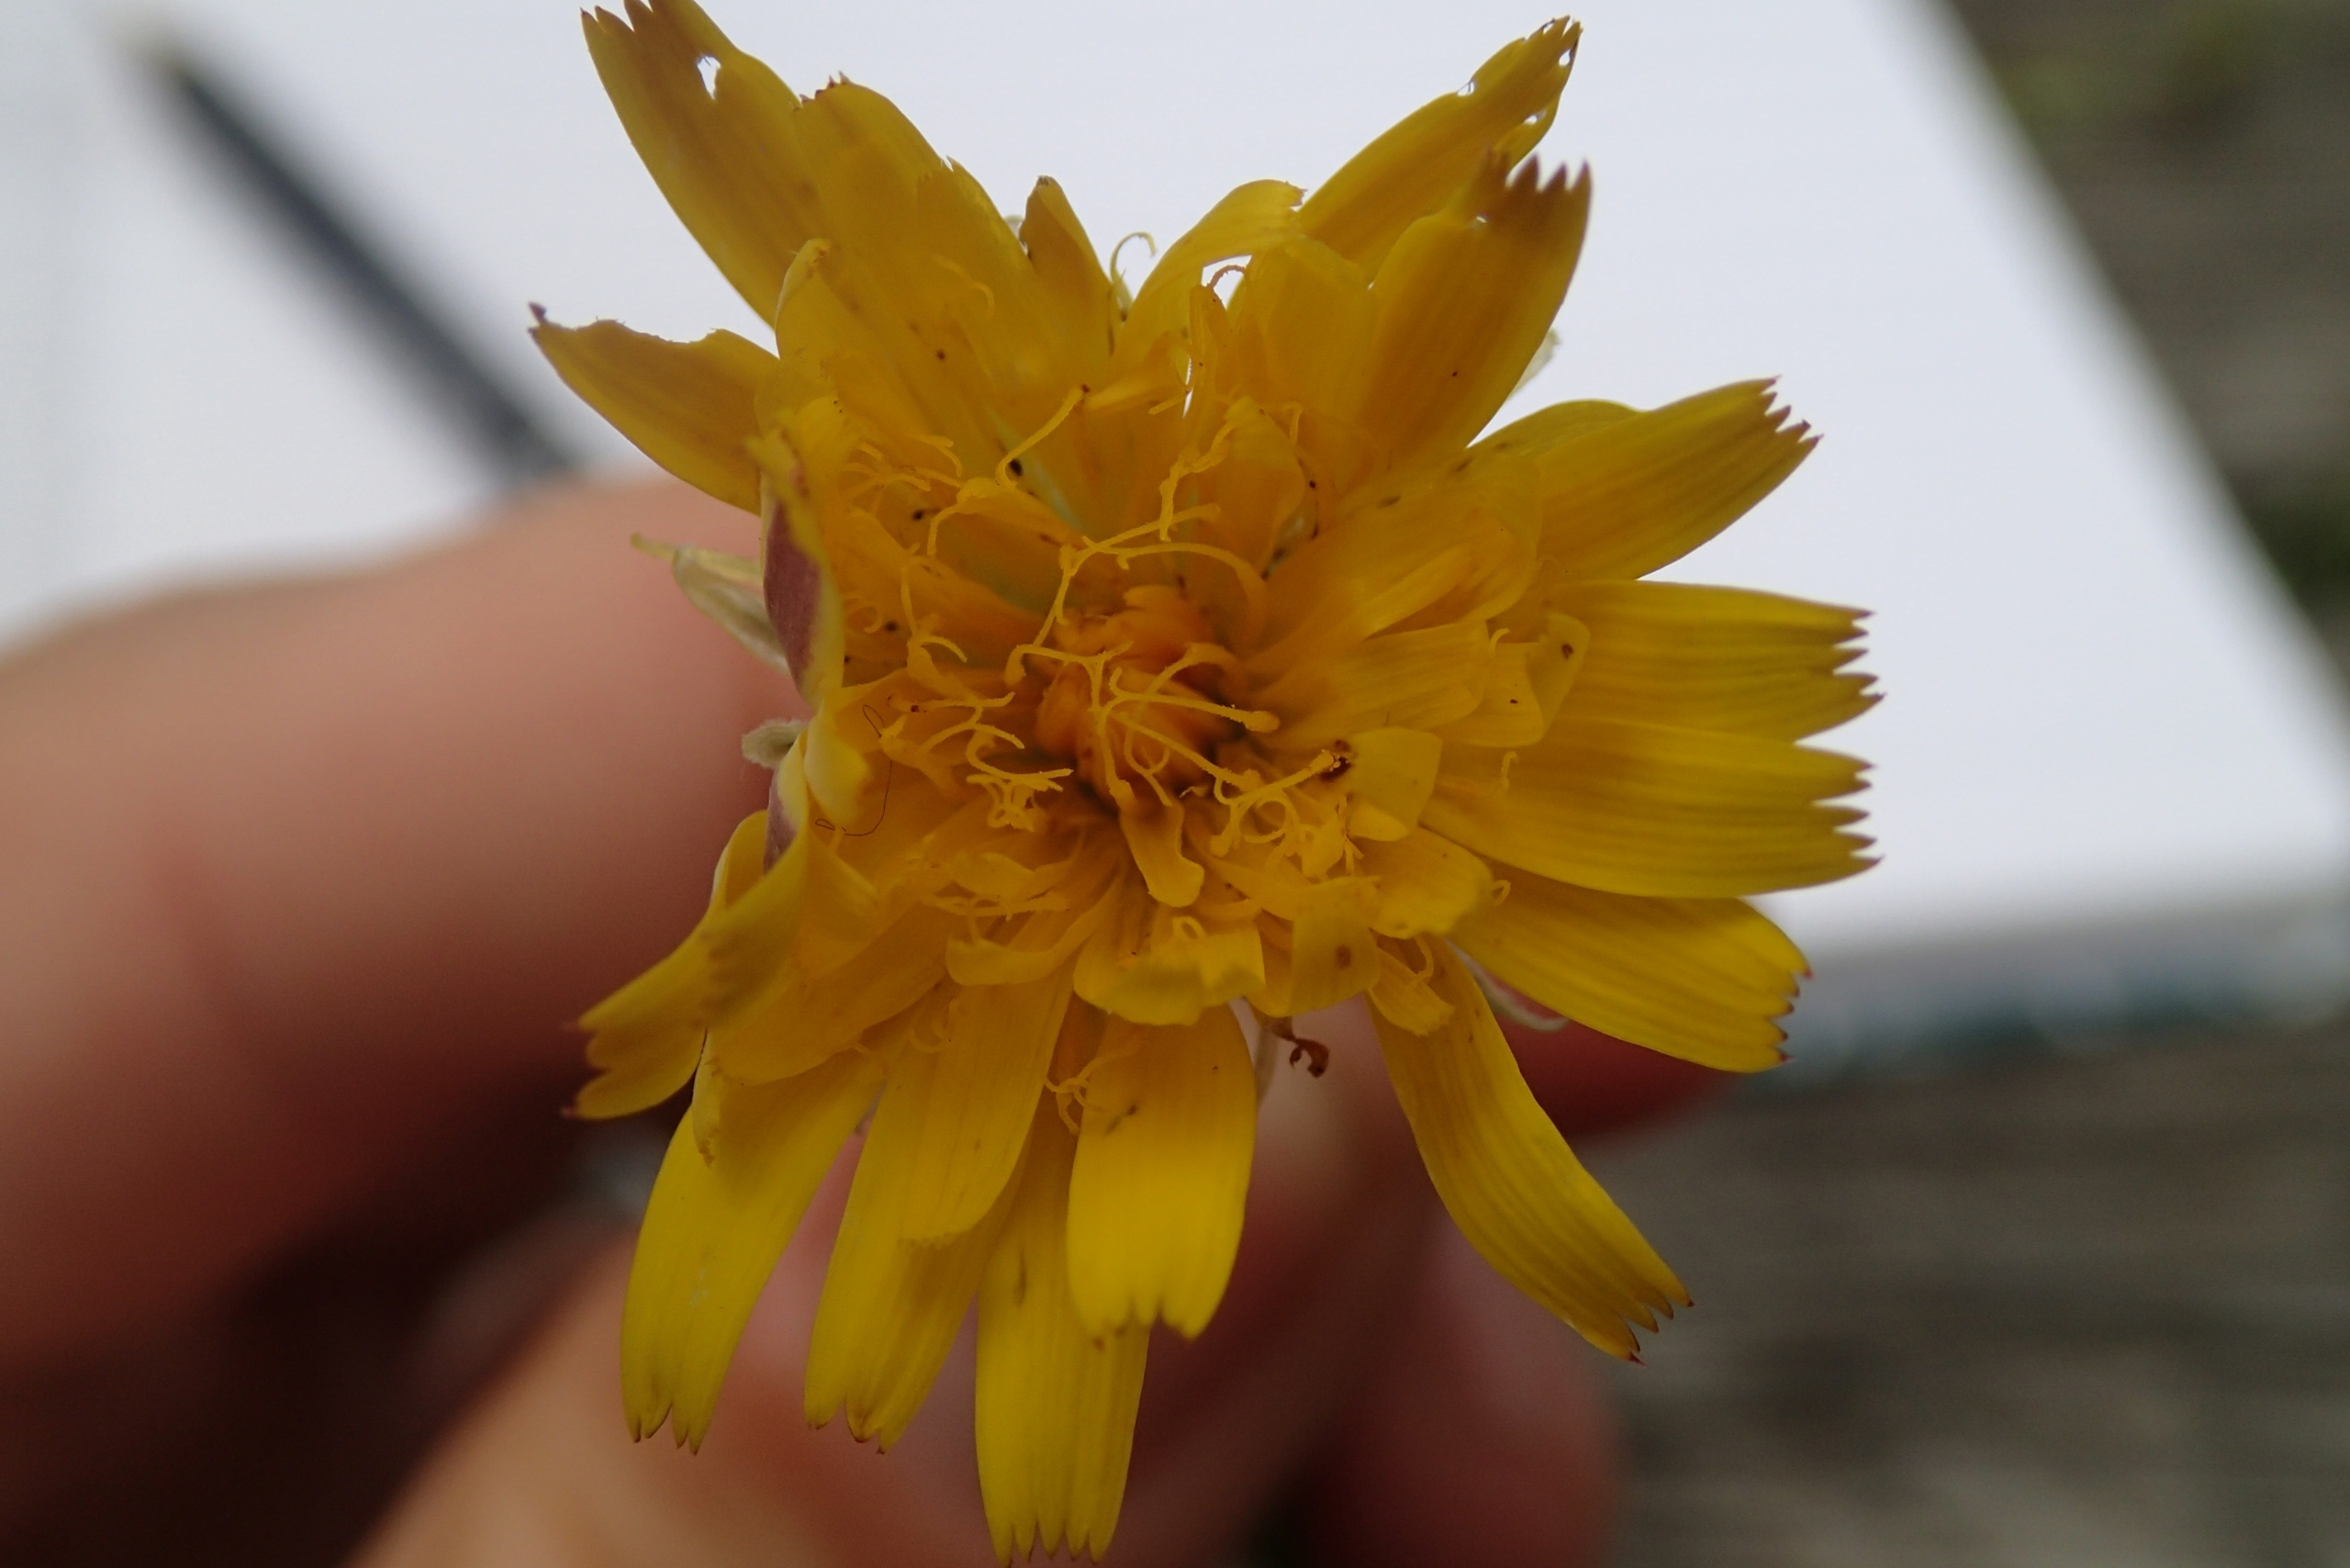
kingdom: Plantae
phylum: Tracheophyta
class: Magnoliopsida
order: Asterales
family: Asteraceae
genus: Hypochaeris
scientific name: Hypochaeris radicata
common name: Almindelig kongepen
